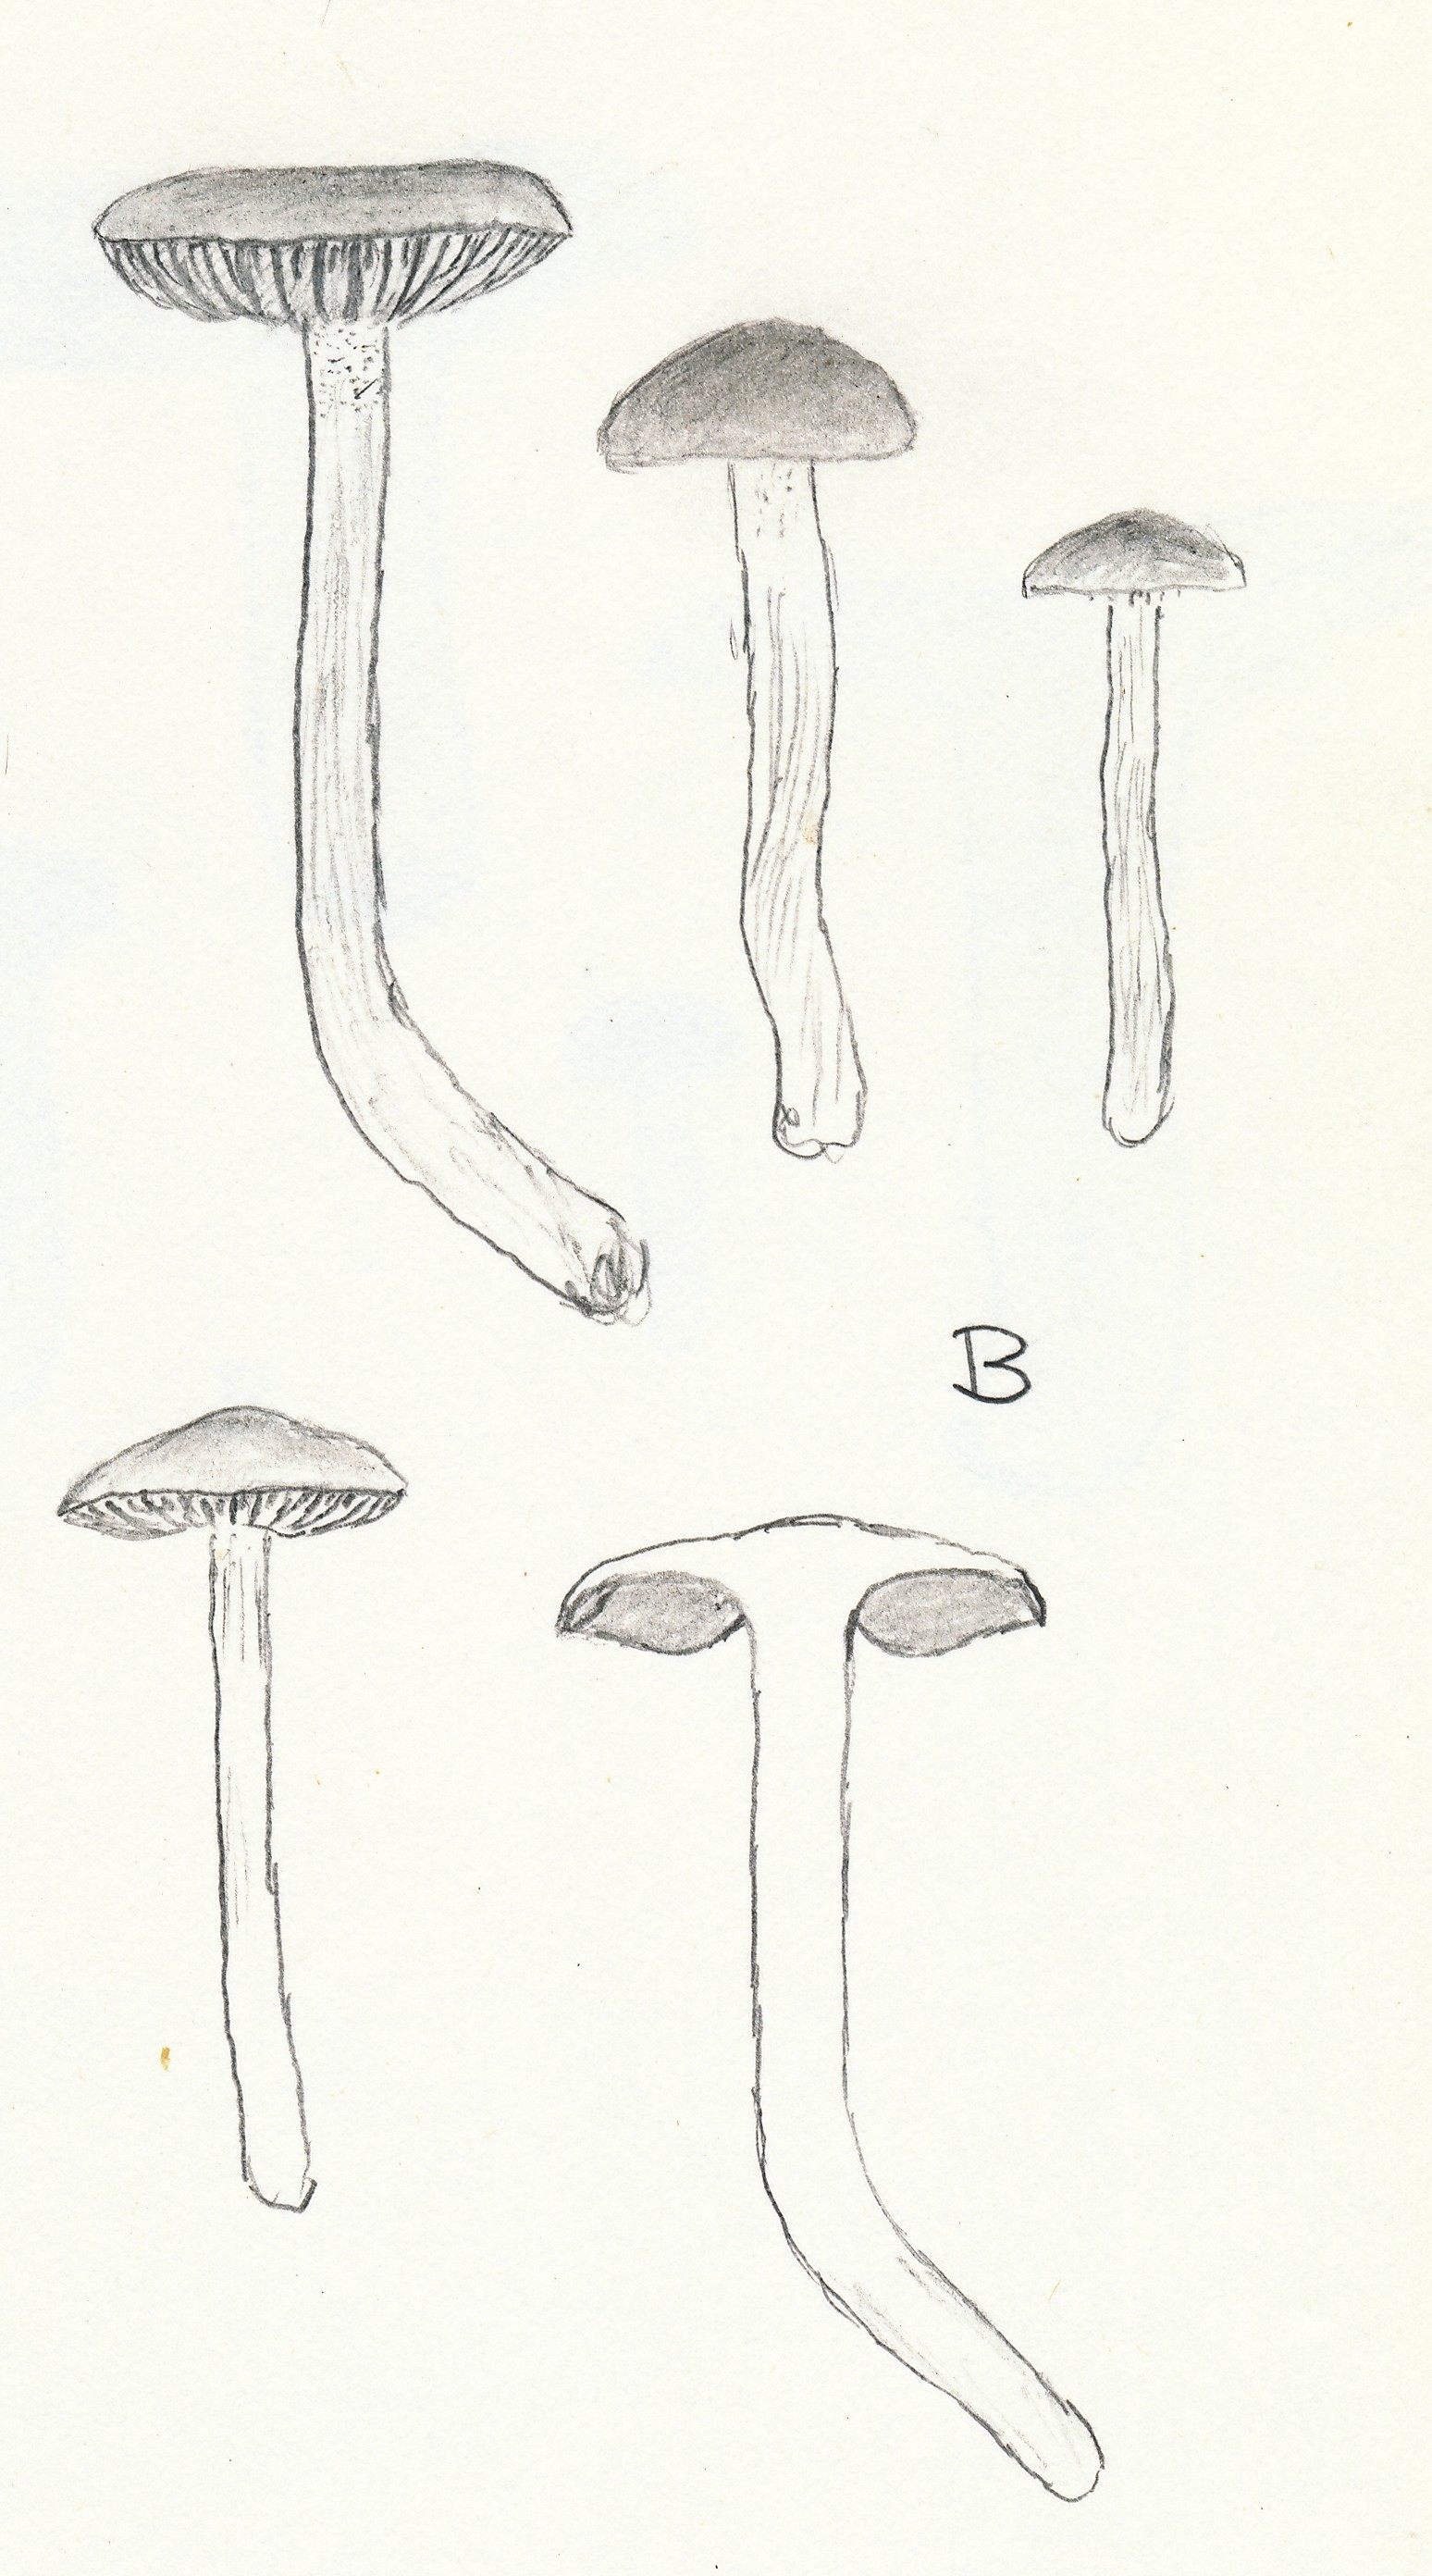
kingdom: Fungi
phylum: Basidiomycota
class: Agaricomycetes
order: Agaricales
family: Hymenogastraceae
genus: Hebeloma
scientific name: Hebeloma pusillum
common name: mose-tåreblad
